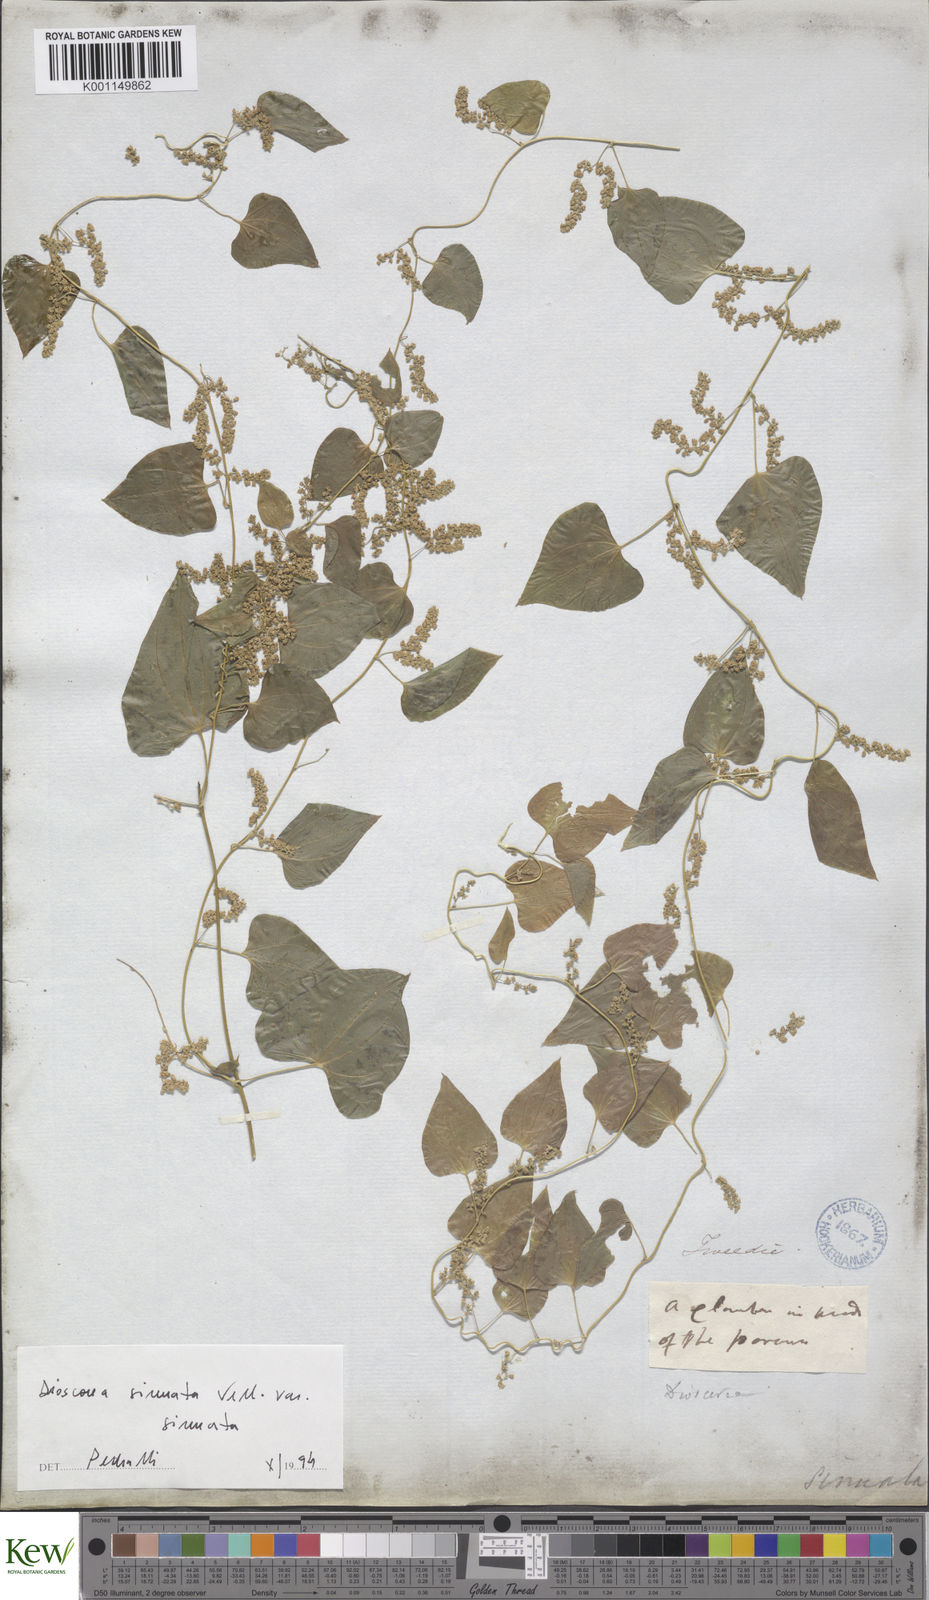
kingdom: Plantae
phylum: Tracheophyta
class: Liliopsida
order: Dioscoreales
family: Dioscoreaceae
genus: Dioscorea
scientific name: Dioscorea sinuata
